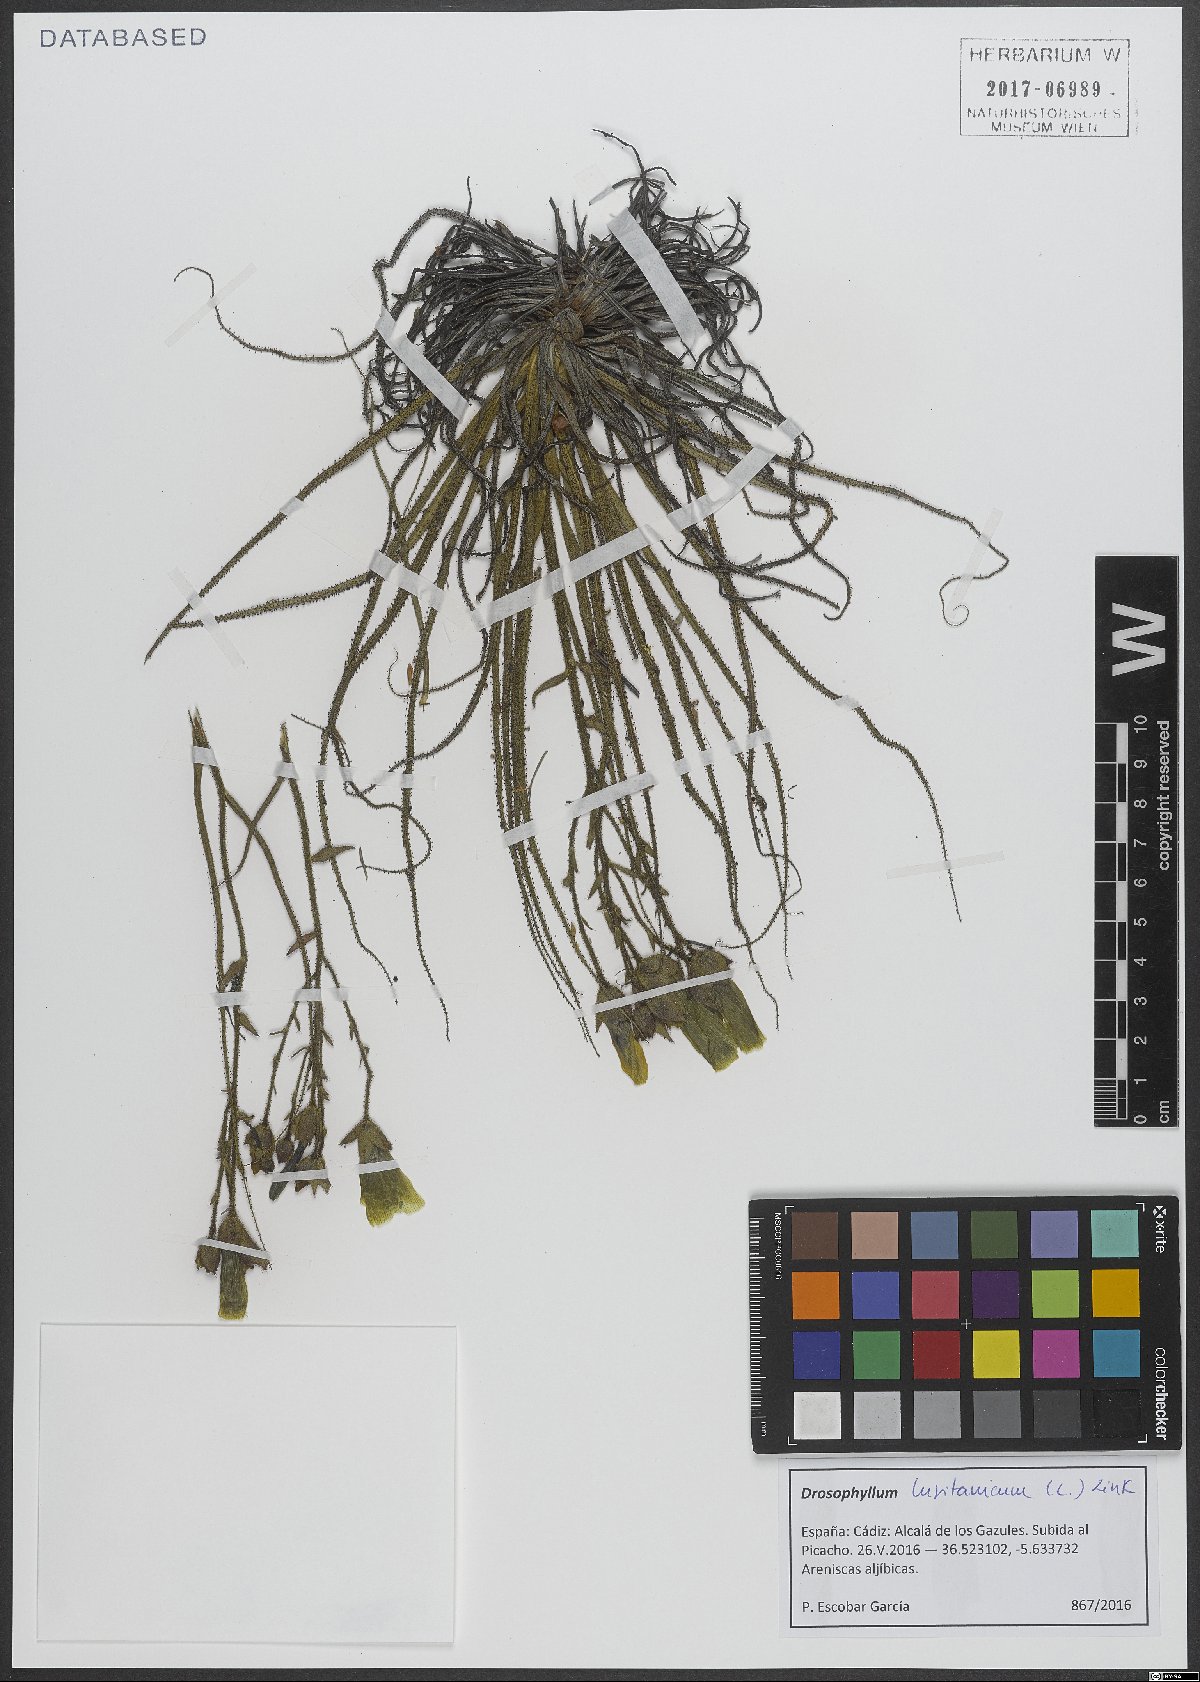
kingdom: Plantae
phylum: Tracheophyta
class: Magnoliopsida
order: Caryophyllales
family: Drosophyllaceae
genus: Drosophyllum
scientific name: Drosophyllum lusitanicum
